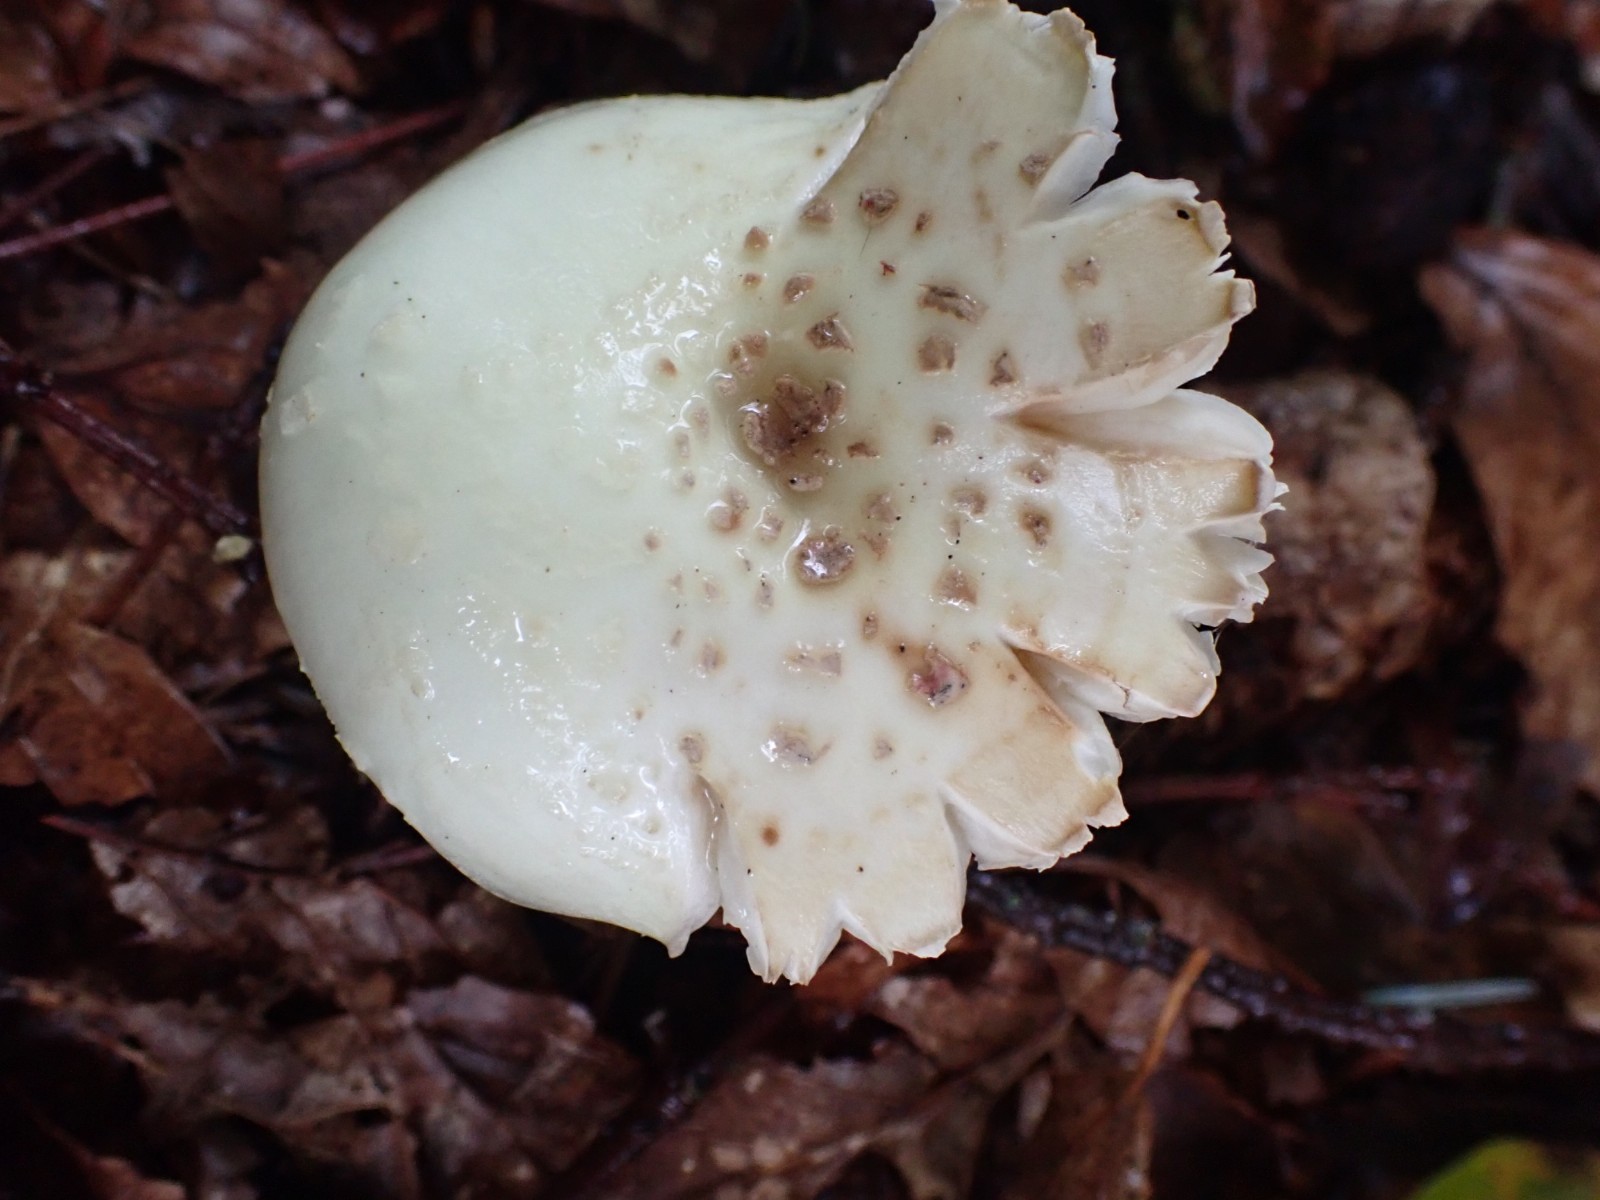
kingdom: Fungi
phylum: Basidiomycota
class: Agaricomycetes
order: Agaricales
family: Amanitaceae
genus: Amanita
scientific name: Amanita citrina
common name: kugleknoldet fluesvamp
